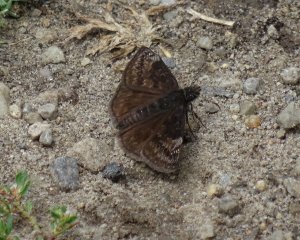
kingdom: Animalia
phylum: Arthropoda
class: Insecta
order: Lepidoptera
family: Hesperiidae
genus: Gesta
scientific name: Gesta
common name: Wild Indigo Duskywing
